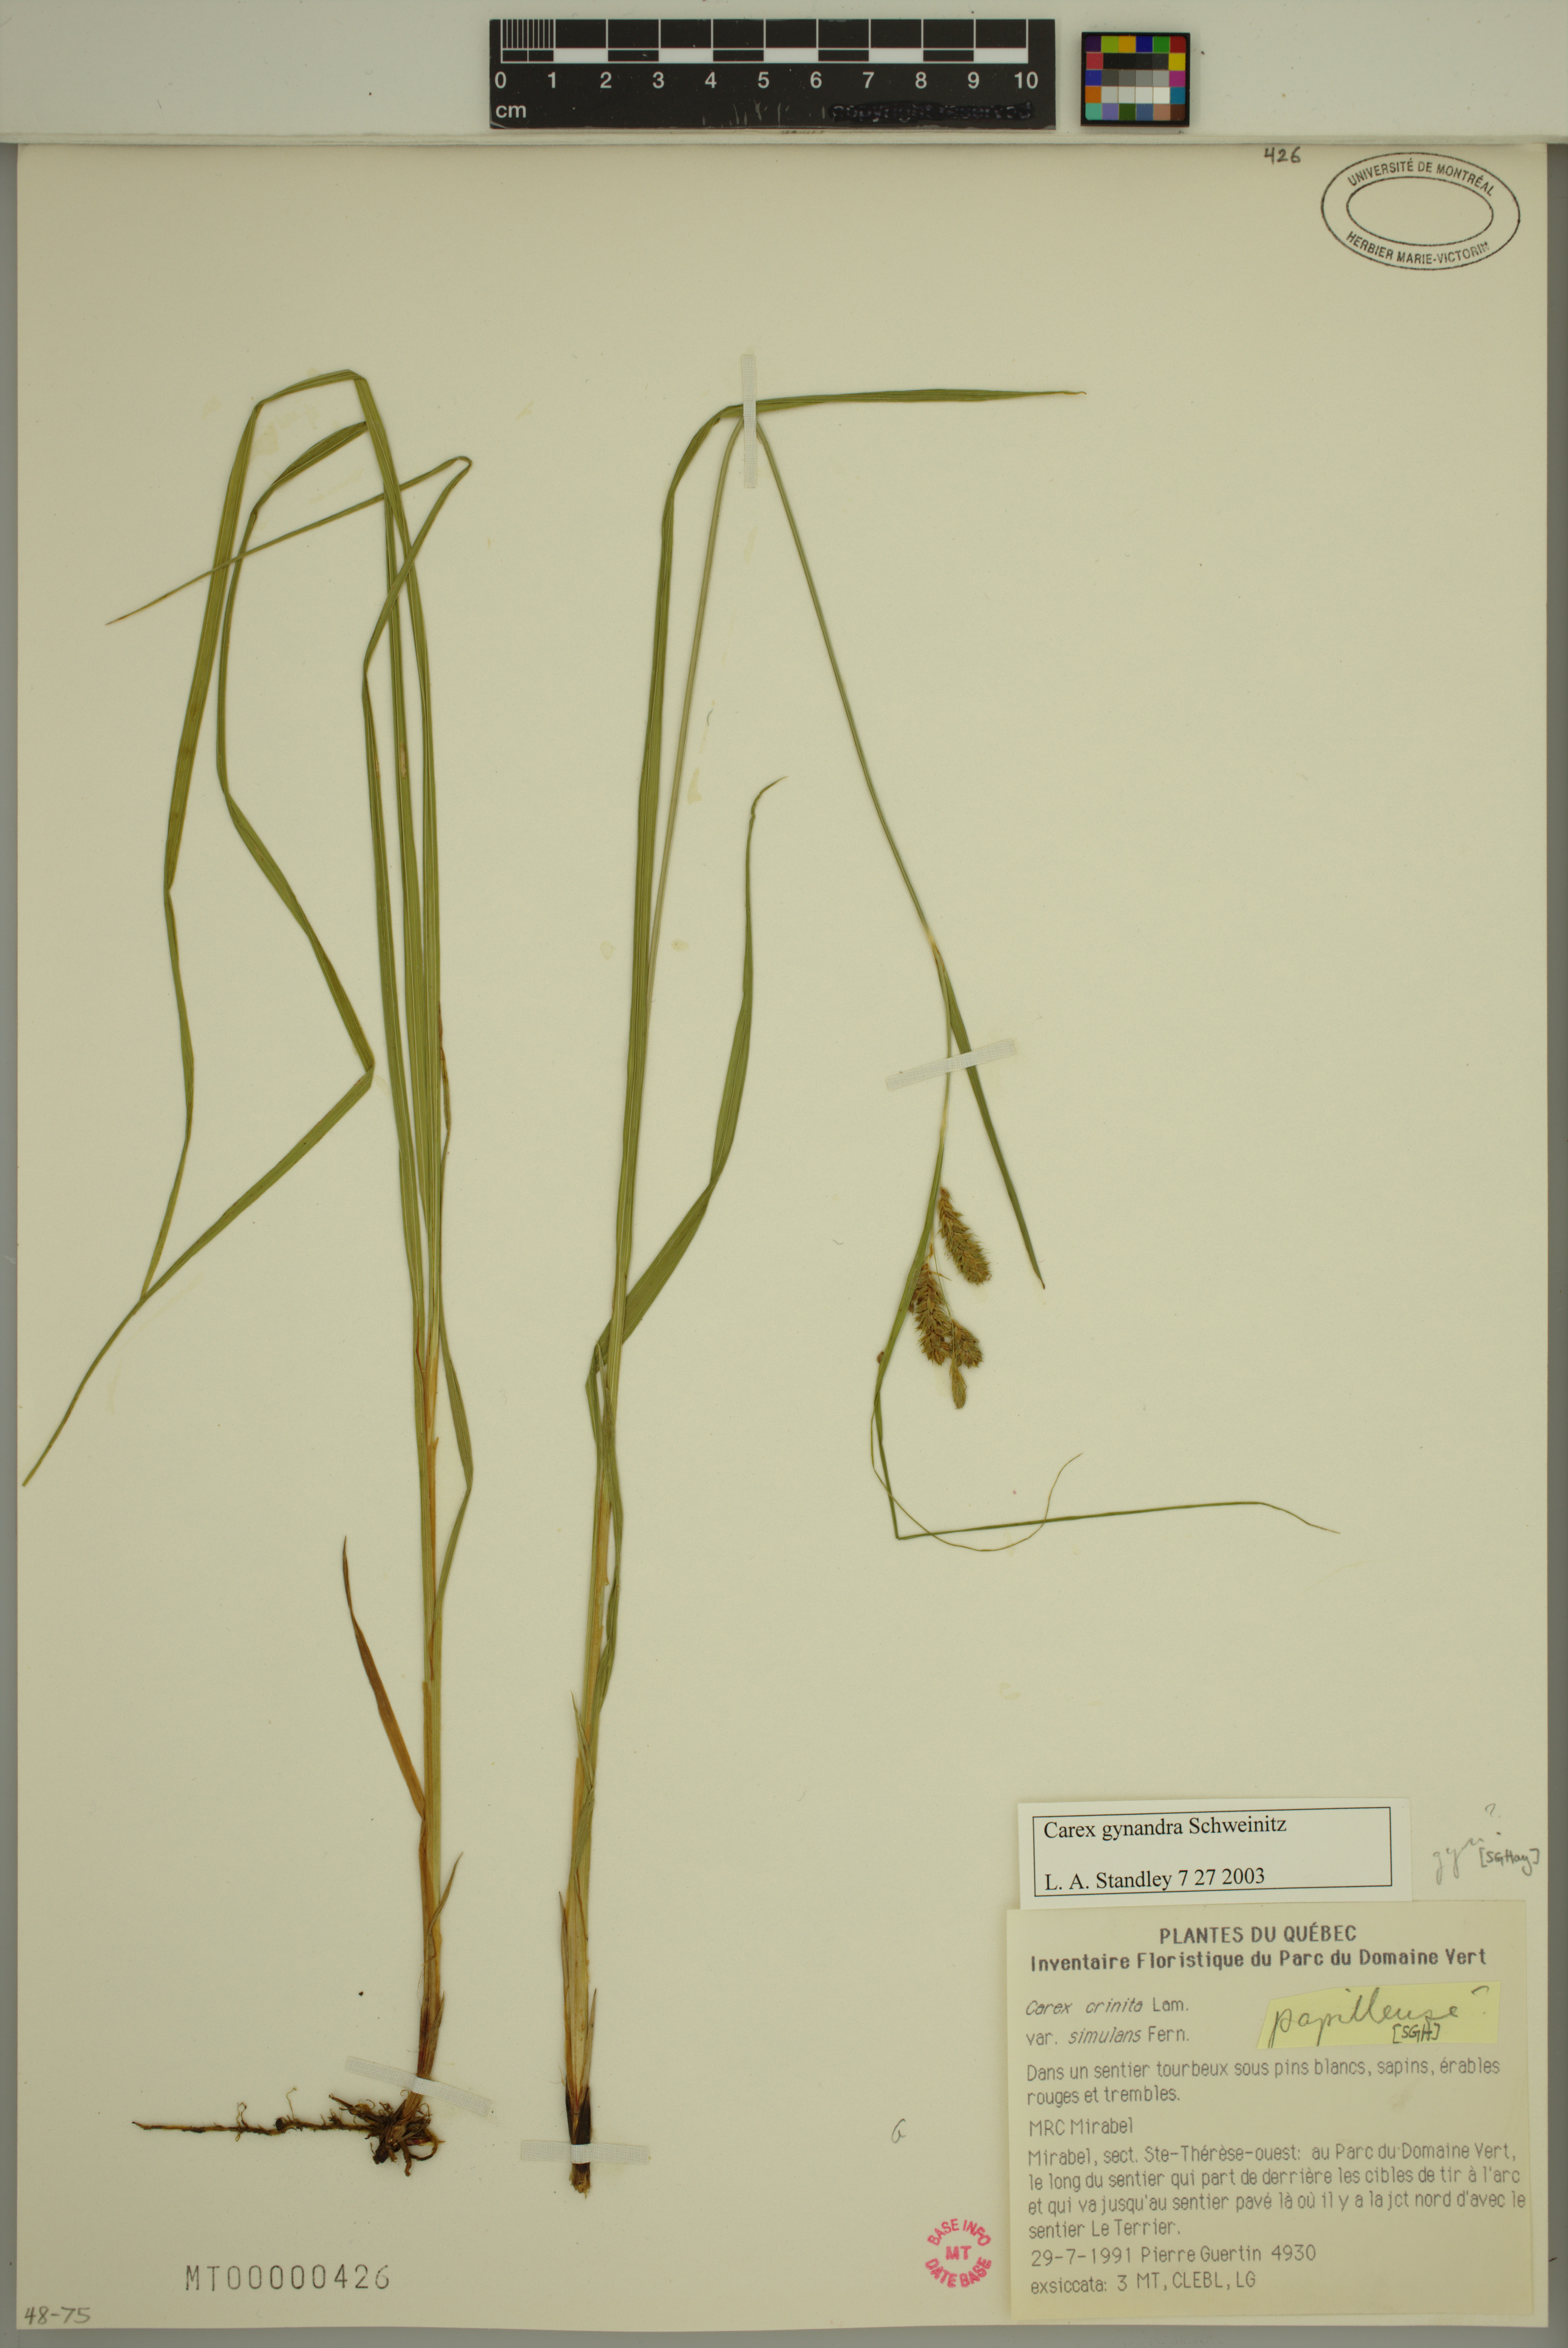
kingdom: Plantae
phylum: Tracheophyta
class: Liliopsida
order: Poales
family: Cyperaceae
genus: Carex
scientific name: Carex gynandra
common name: Nodding sedge
